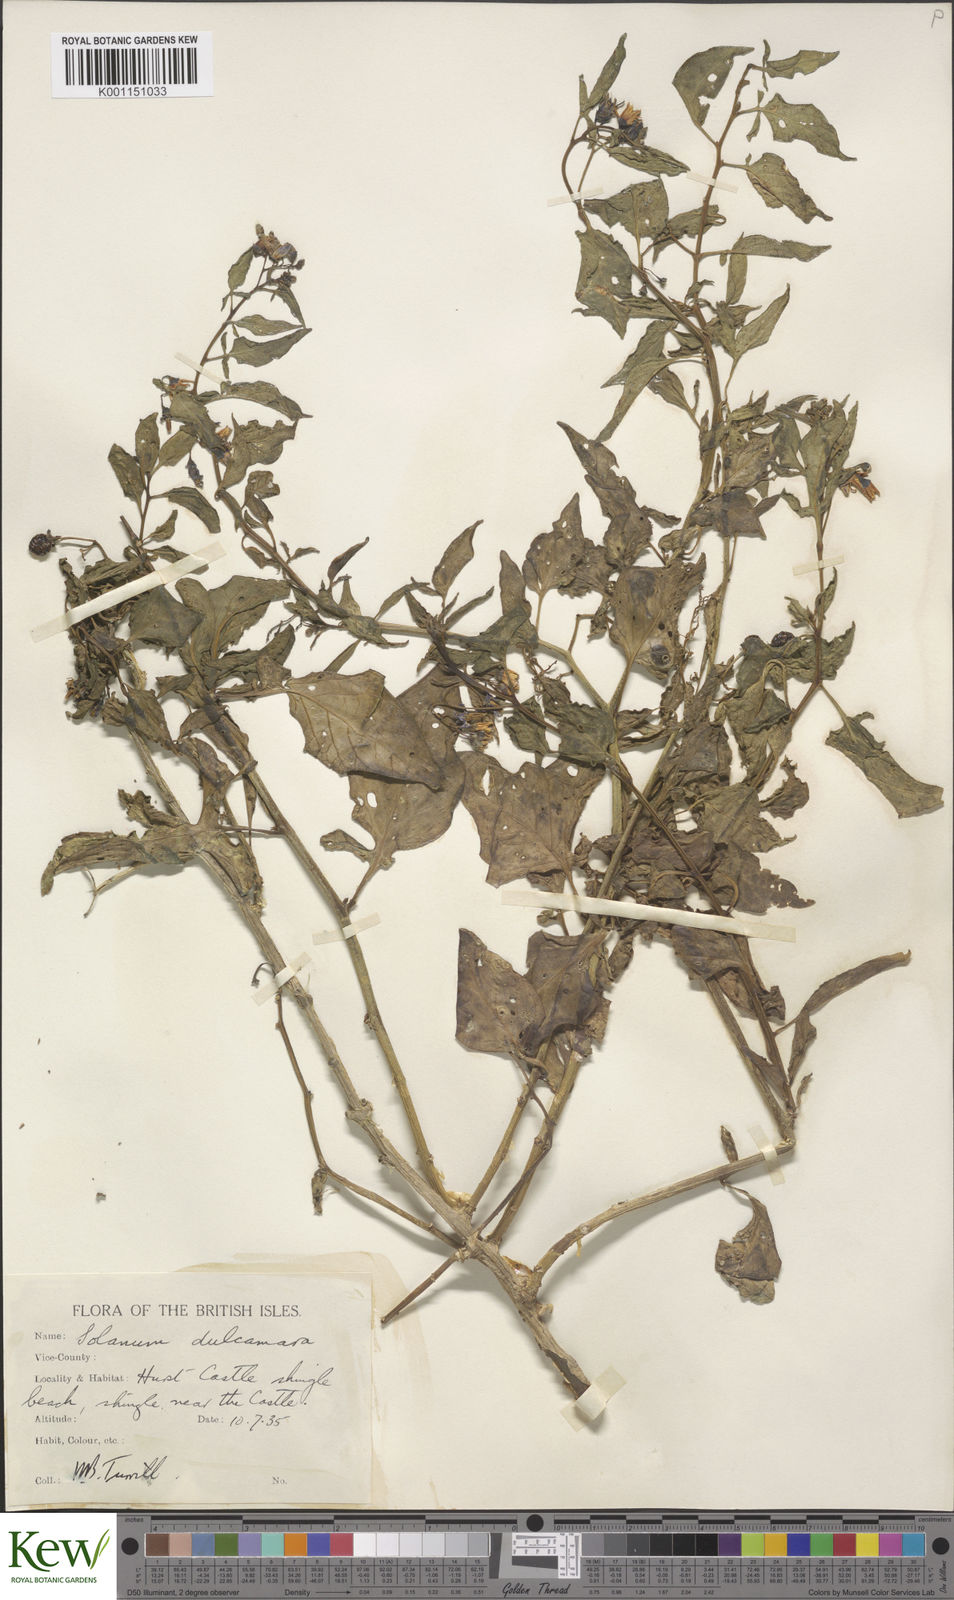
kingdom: Plantae
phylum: Tracheophyta
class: Magnoliopsida
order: Solanales
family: Solanaceae
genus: Solanum
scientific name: Solanum dulcamara
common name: Climbing nightshade
